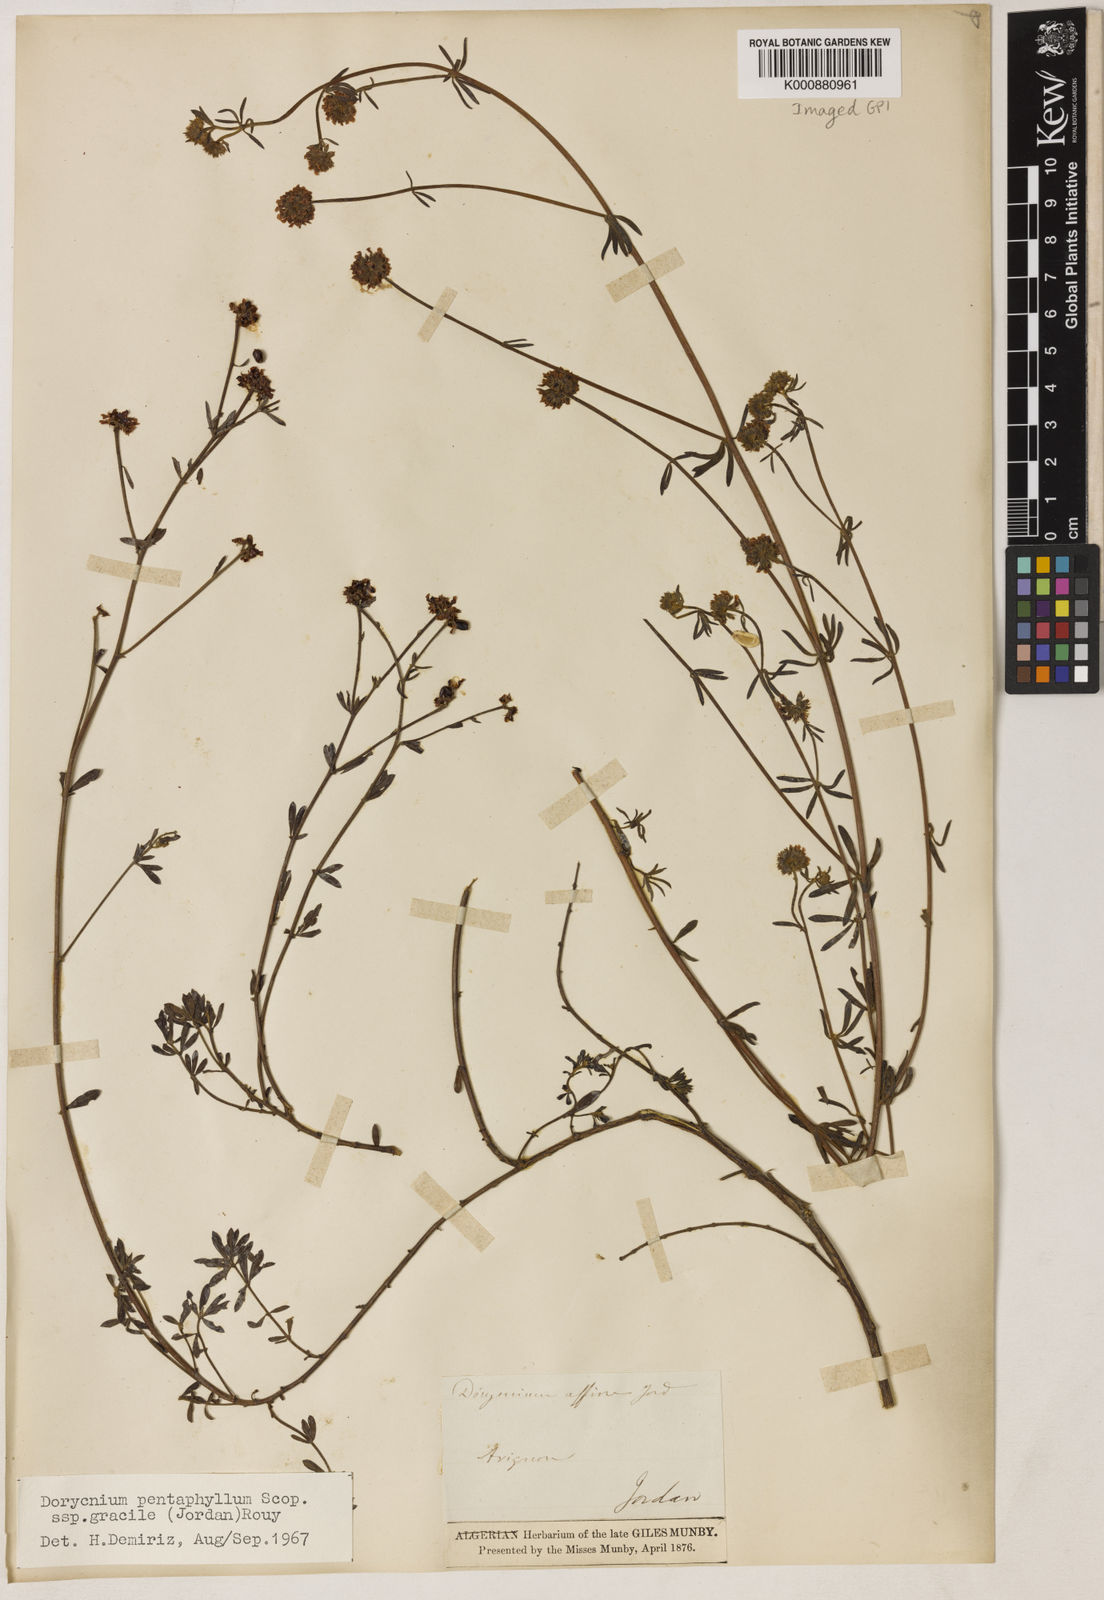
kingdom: Plantae
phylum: Tracheophyta
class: Magnoliopsida
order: Fabales
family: Fabaceae
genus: Lotus
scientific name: Lotus jordanii
